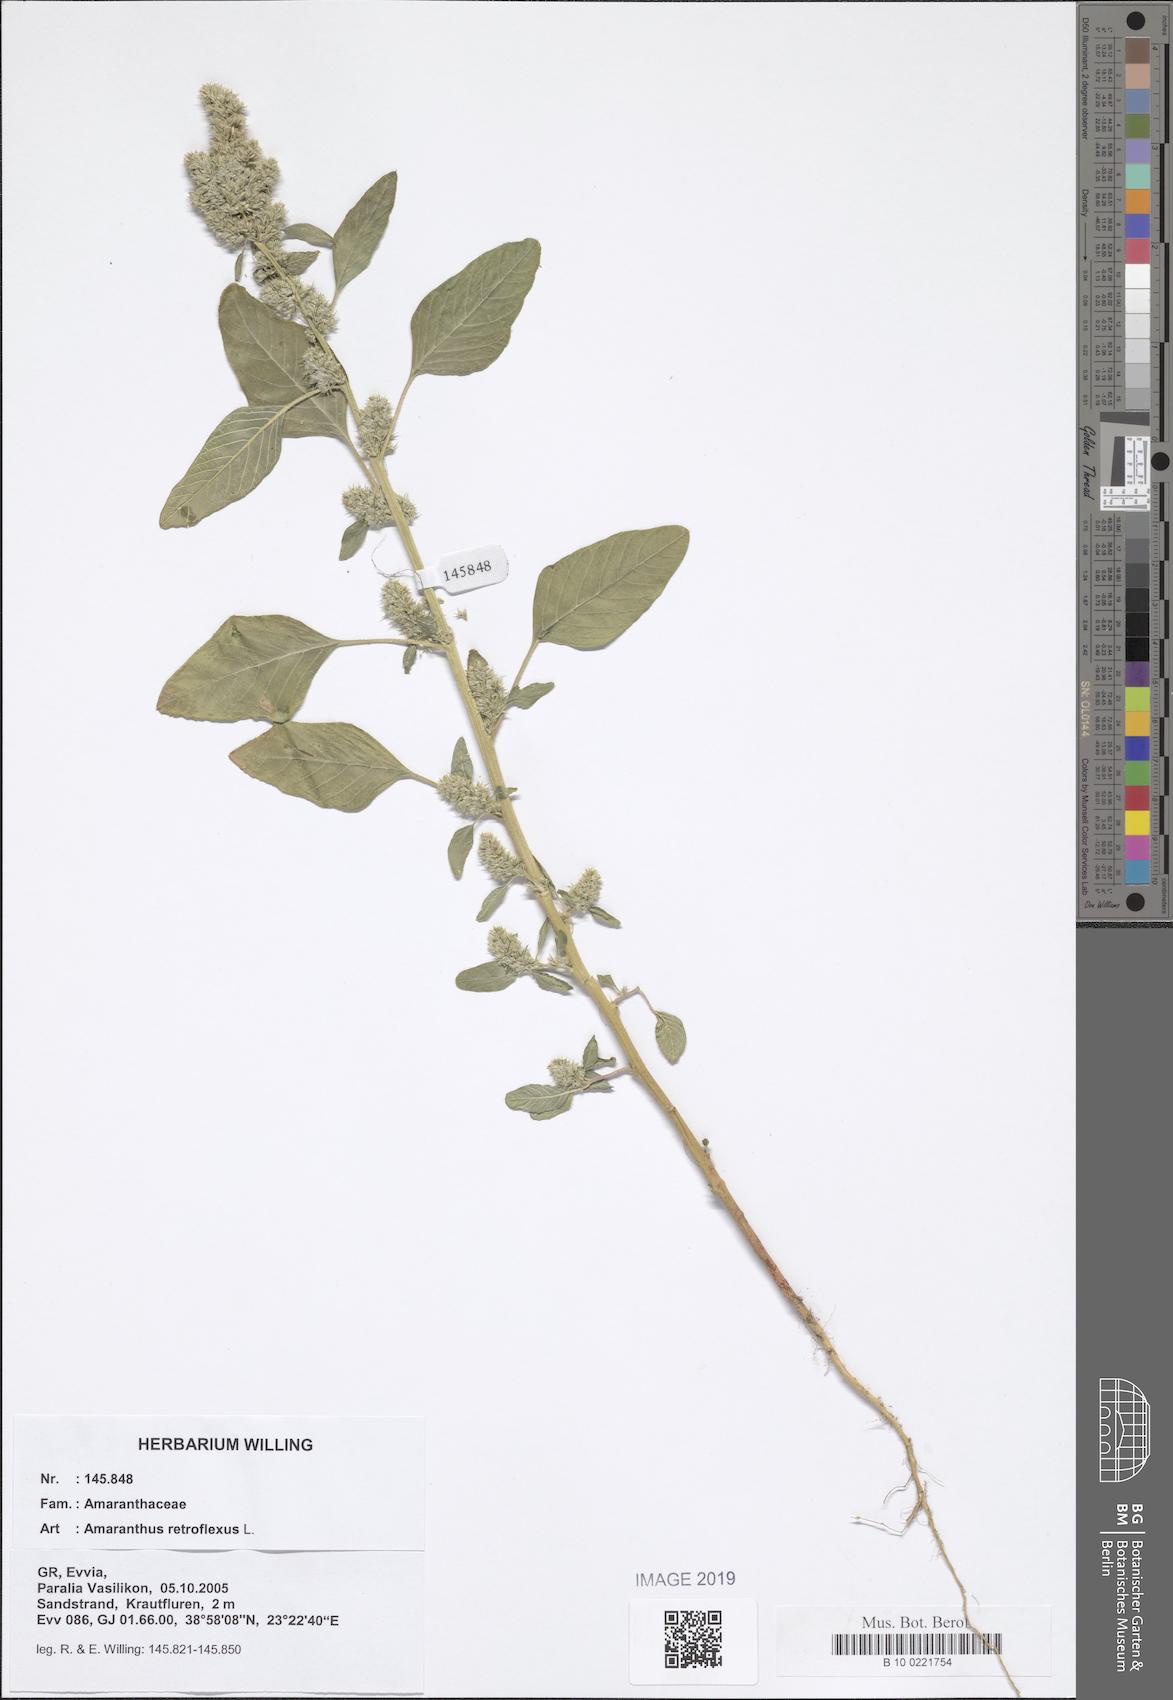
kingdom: Plantae
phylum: Tracheophyta
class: Magnoliopsida
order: Caryophyllales
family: Amaranthaceae
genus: Amaranthus
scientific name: Amaranthus retroflexus
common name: Redroot amaranth
